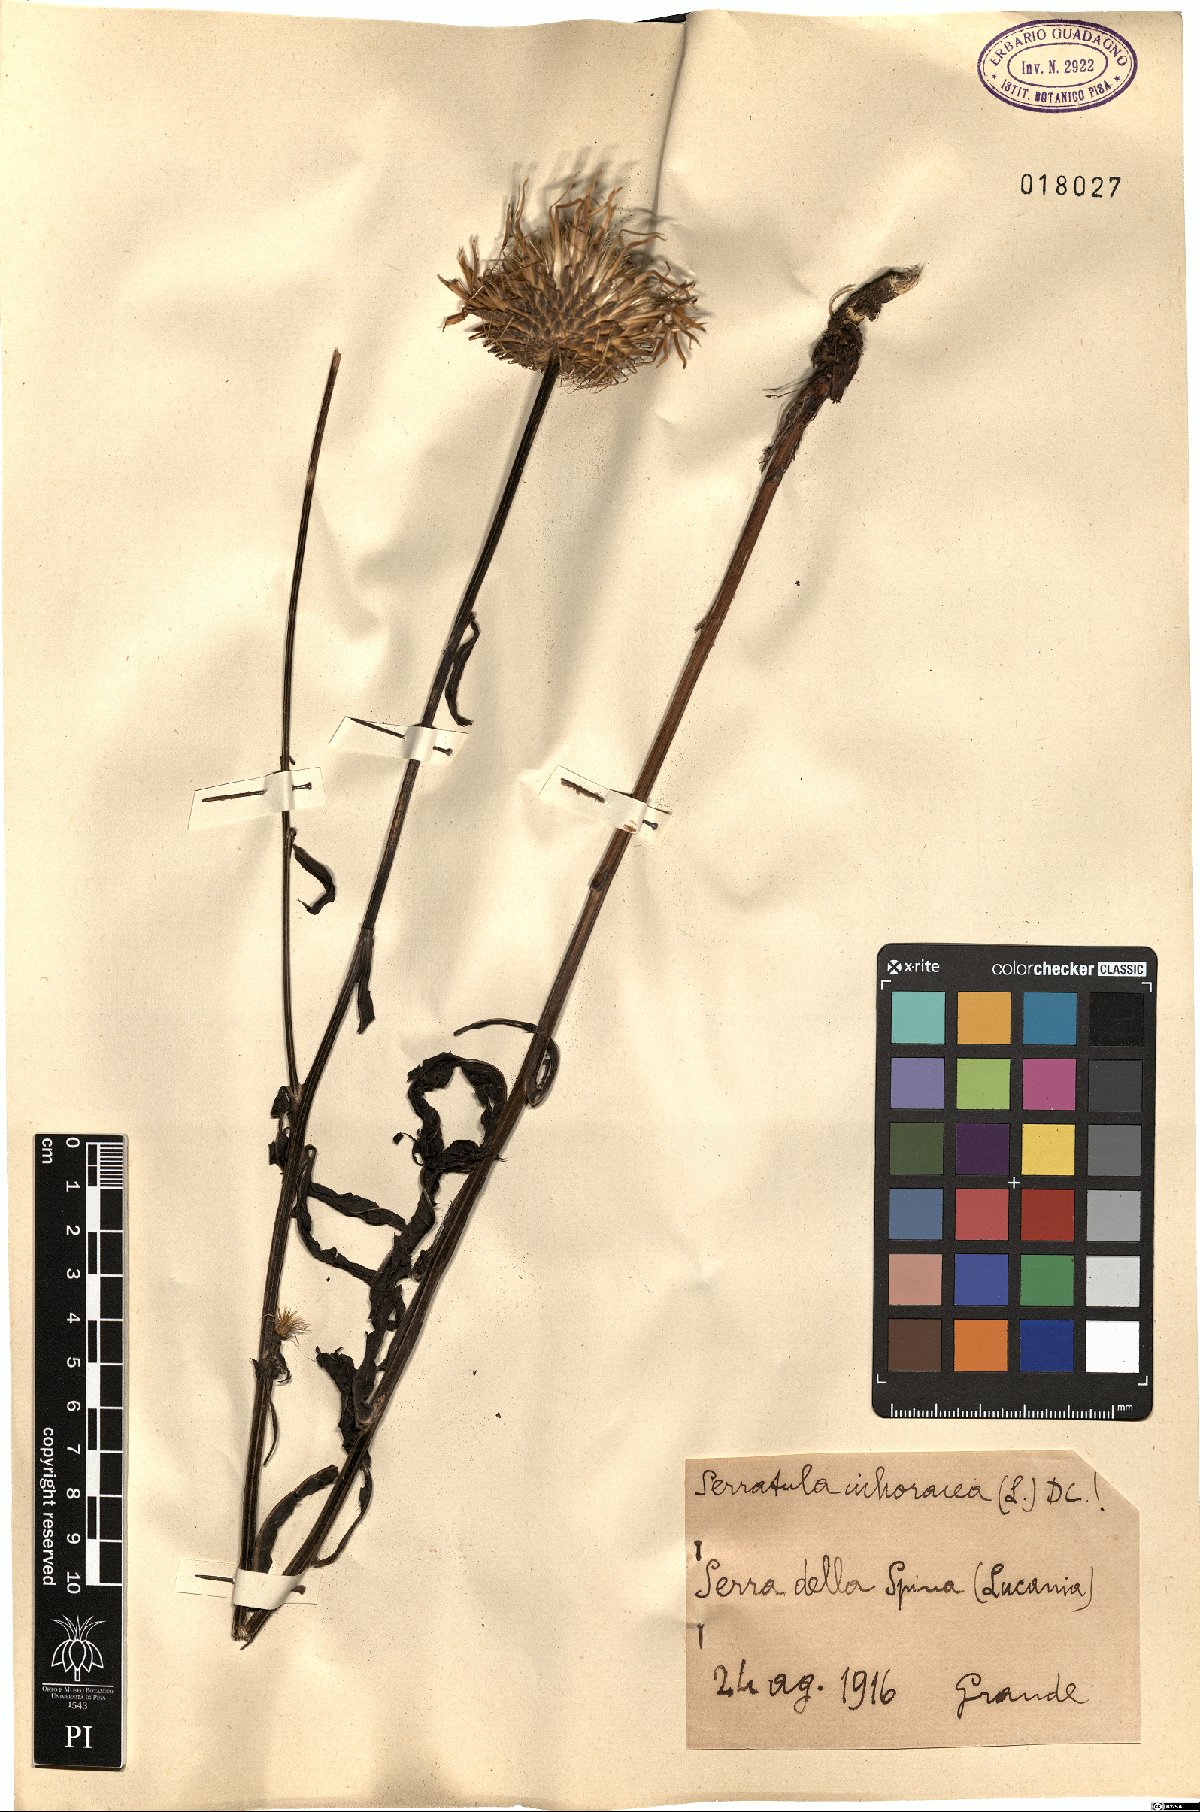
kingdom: Plantae
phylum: Tracheophyta
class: Magnoliopsida
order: Asterales
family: Asteraceae
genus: Klasea
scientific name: Klasea flavescens
